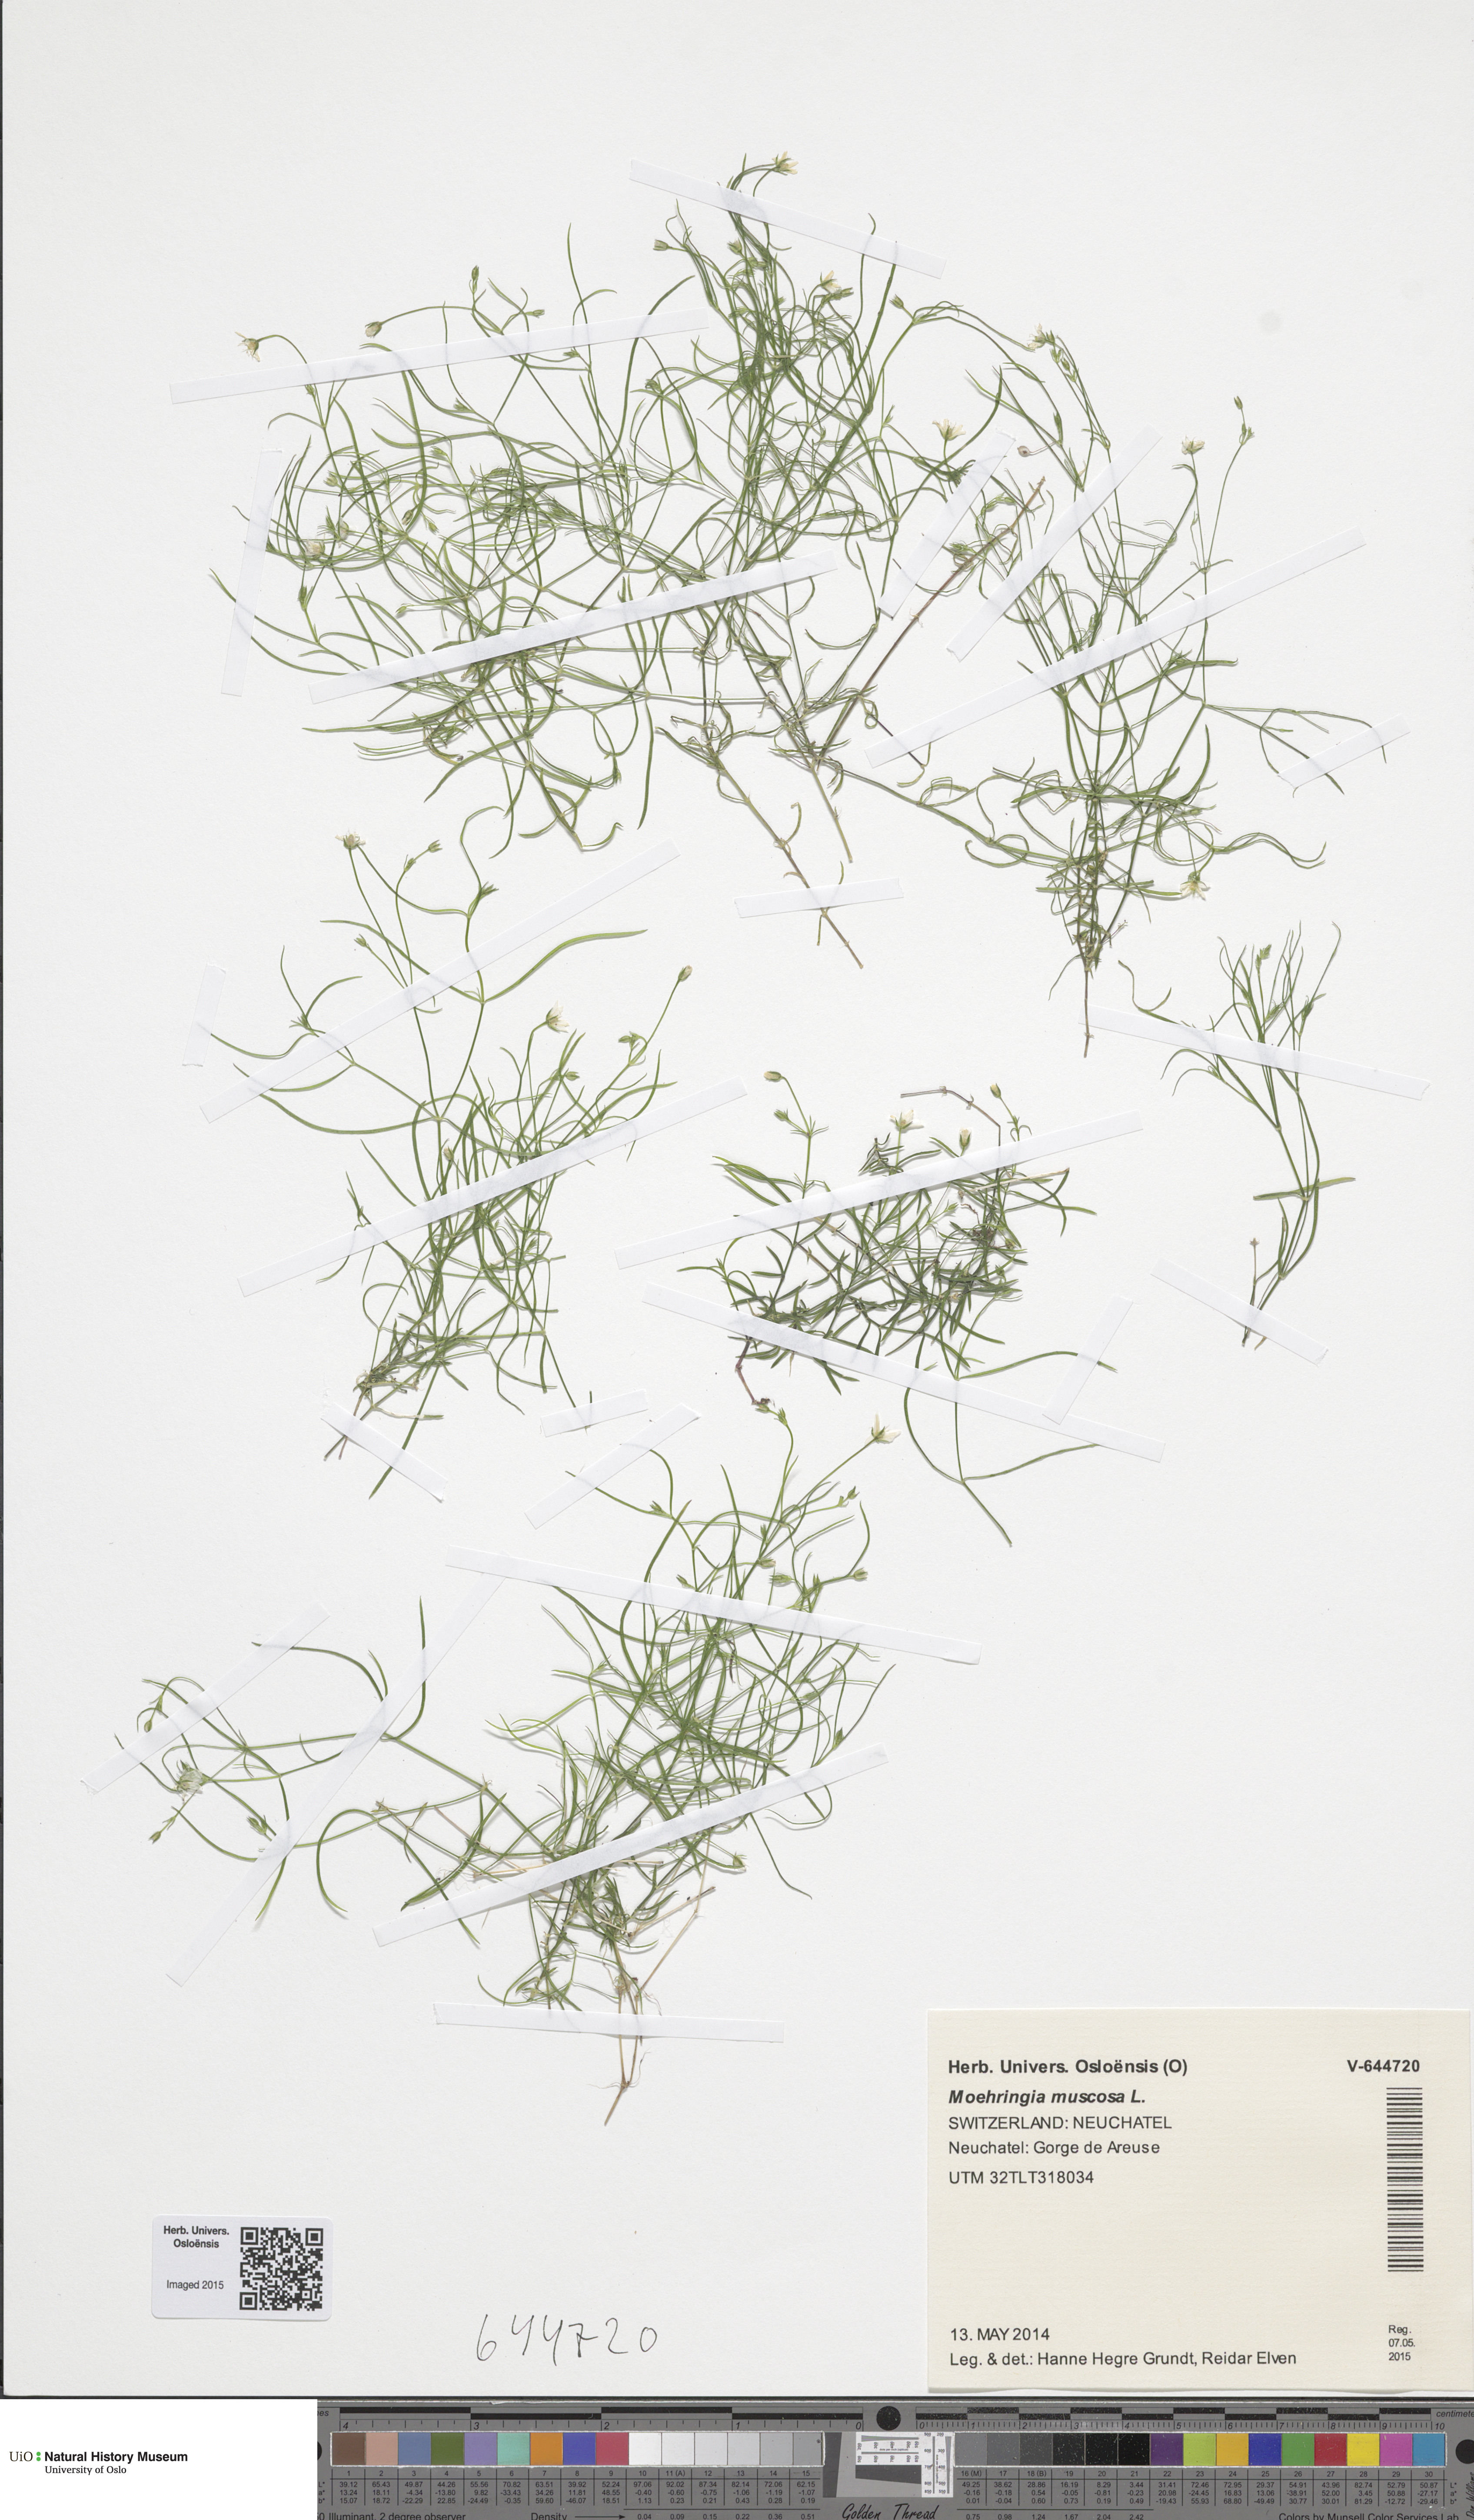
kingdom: Plantae
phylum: Tracheophyta
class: Magnoliopsida
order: Caryophyllales
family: Caryophyllaceae
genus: Moehringia
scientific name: Moehringia muscosa
